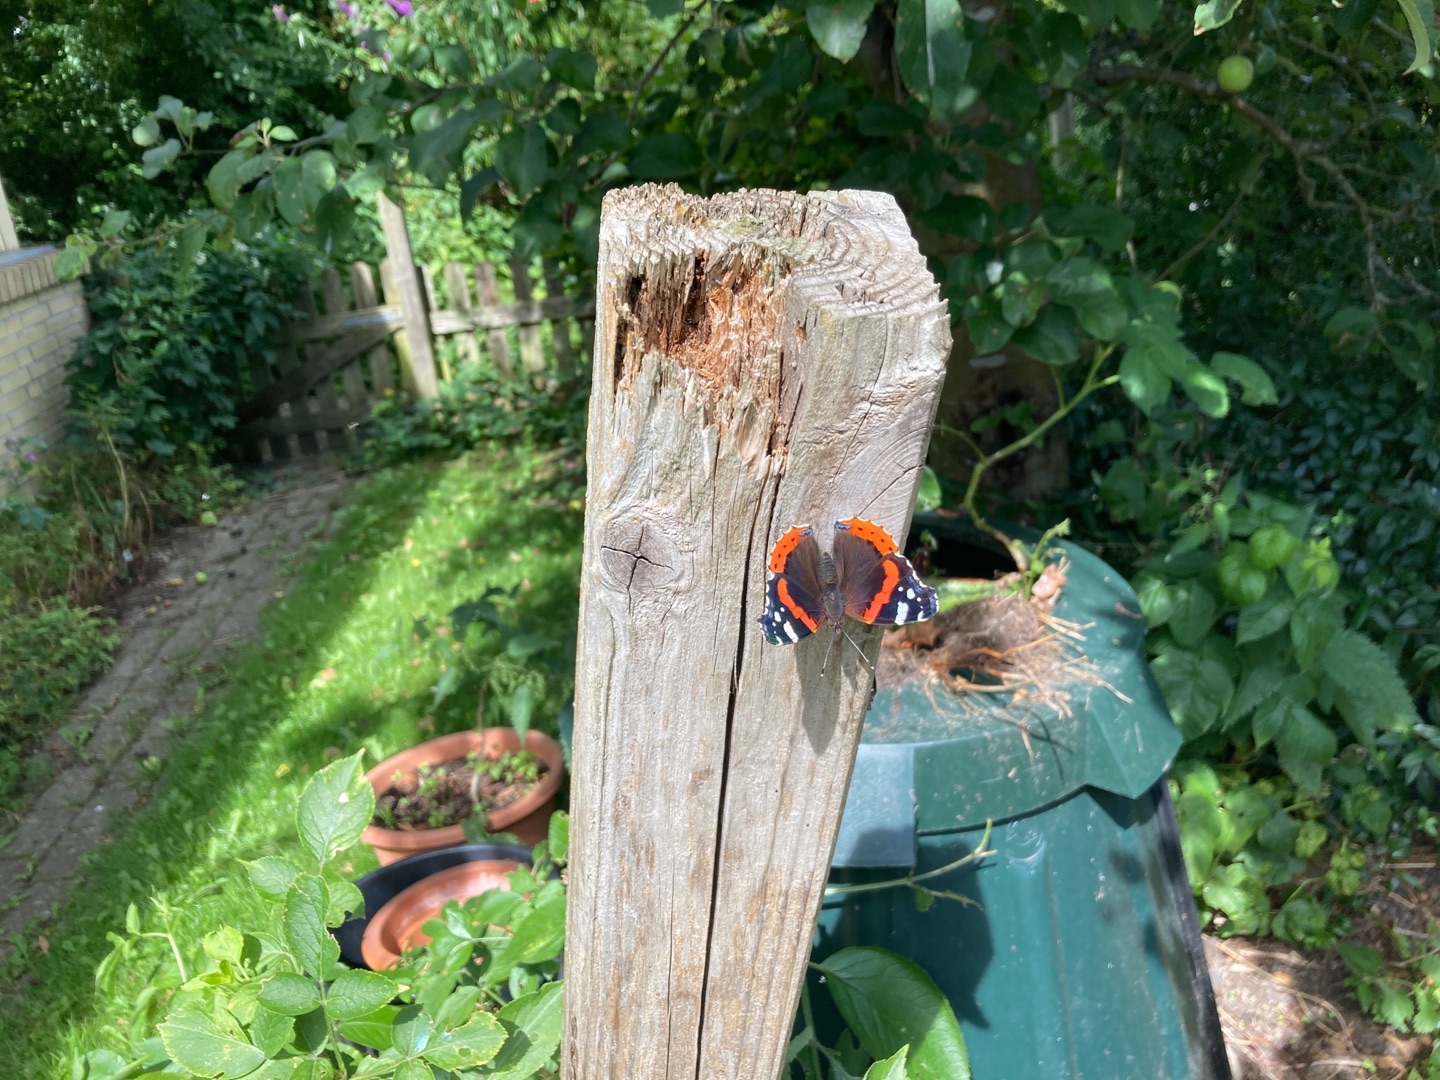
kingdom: Animalia
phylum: Arthropoda
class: Insecta
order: Lepidoptera
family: Nymphalidae
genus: Vanessa
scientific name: Vanessa atalanta
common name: Admiral
